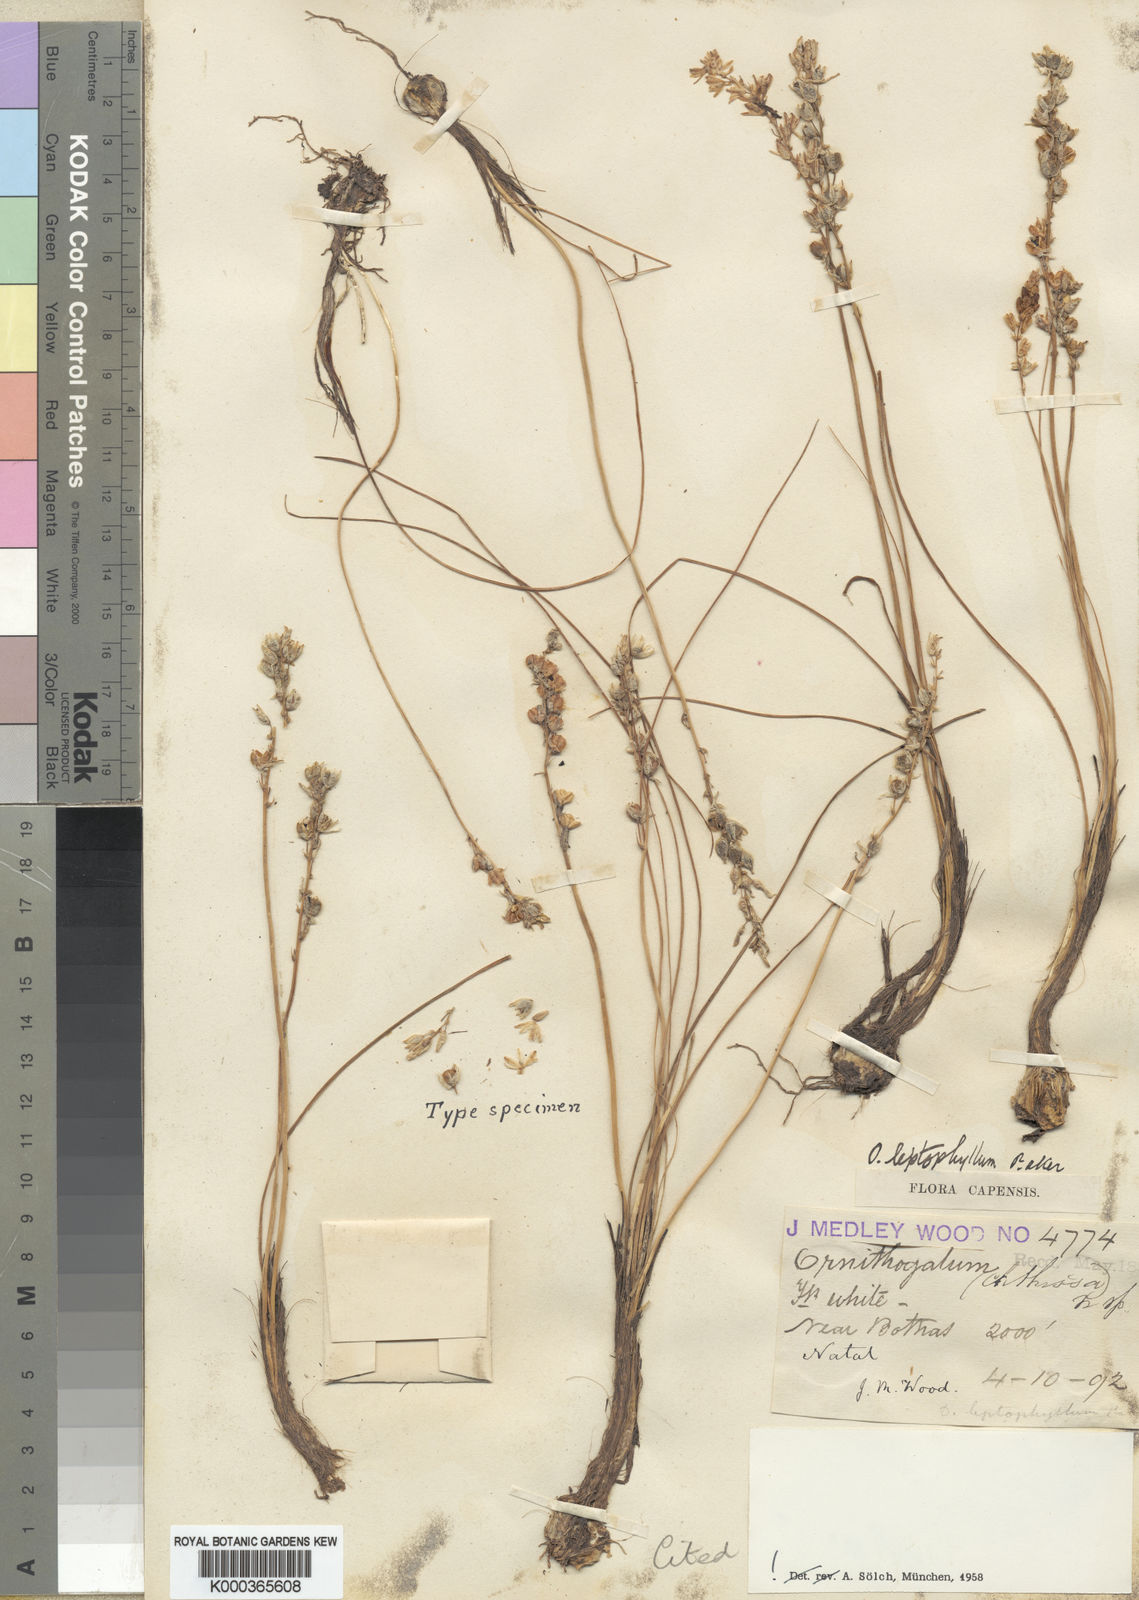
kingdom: Plantae
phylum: Tracheophyta
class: Liliopsida
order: Asparagales
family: Asparagaceae
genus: Ornithogalum
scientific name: Ornithogalum juncifolium
